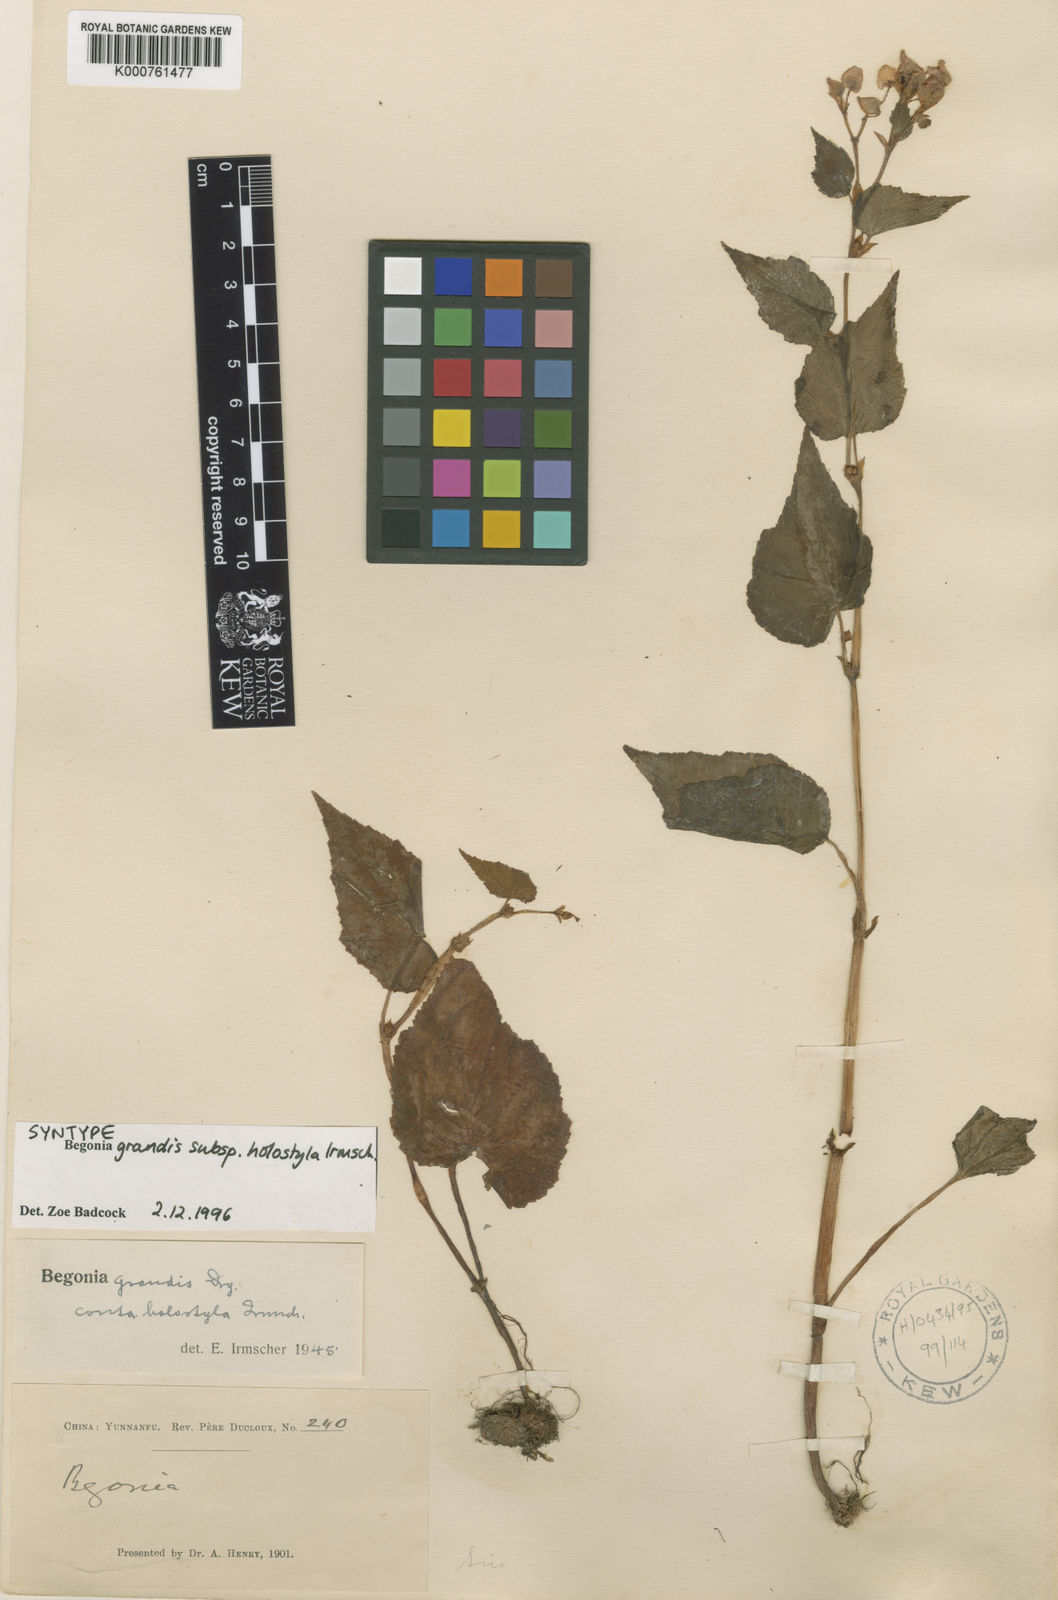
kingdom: Plantae
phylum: Tracheophyta
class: Magnoliopsida
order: Cucurbitales
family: Begoniaceae
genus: Begonia
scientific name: Begonia grandis
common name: Hardy begonia
